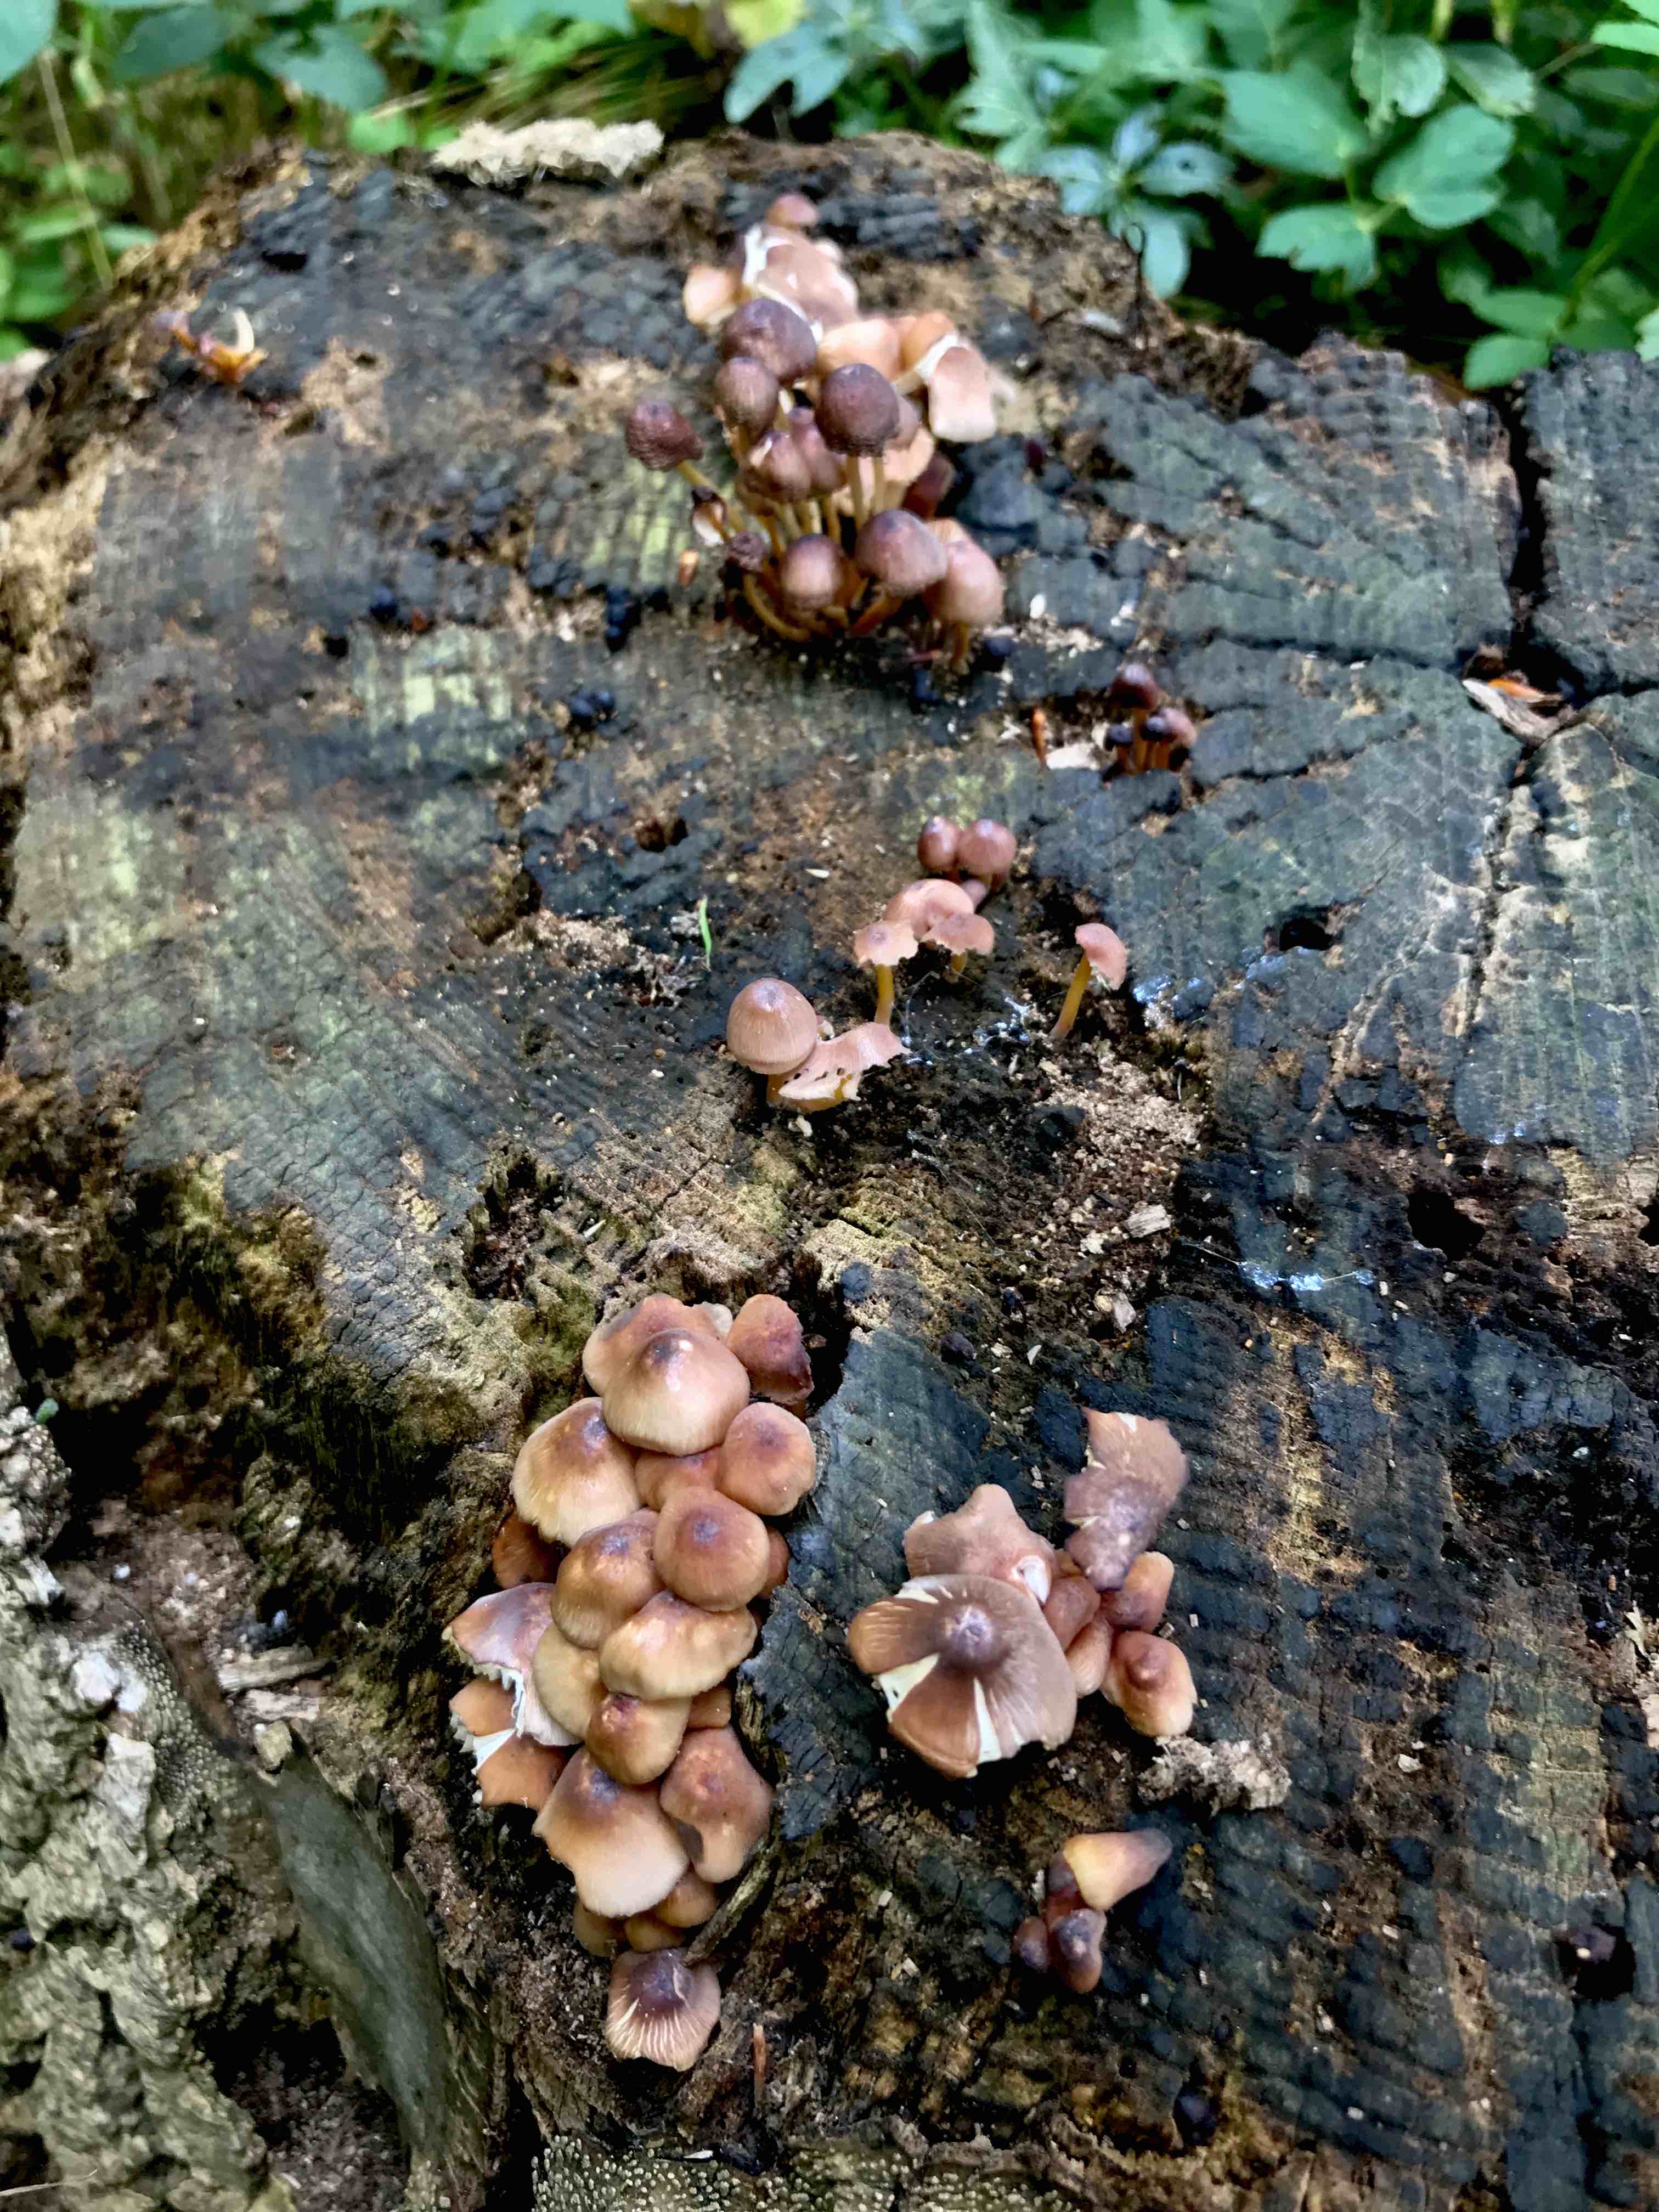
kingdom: Fungi
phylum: Basidiomycota
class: Agaricomycetes
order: Agaricales
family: Mycenaceae
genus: Mycena
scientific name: Mycena renati
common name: smuk huesvamp
